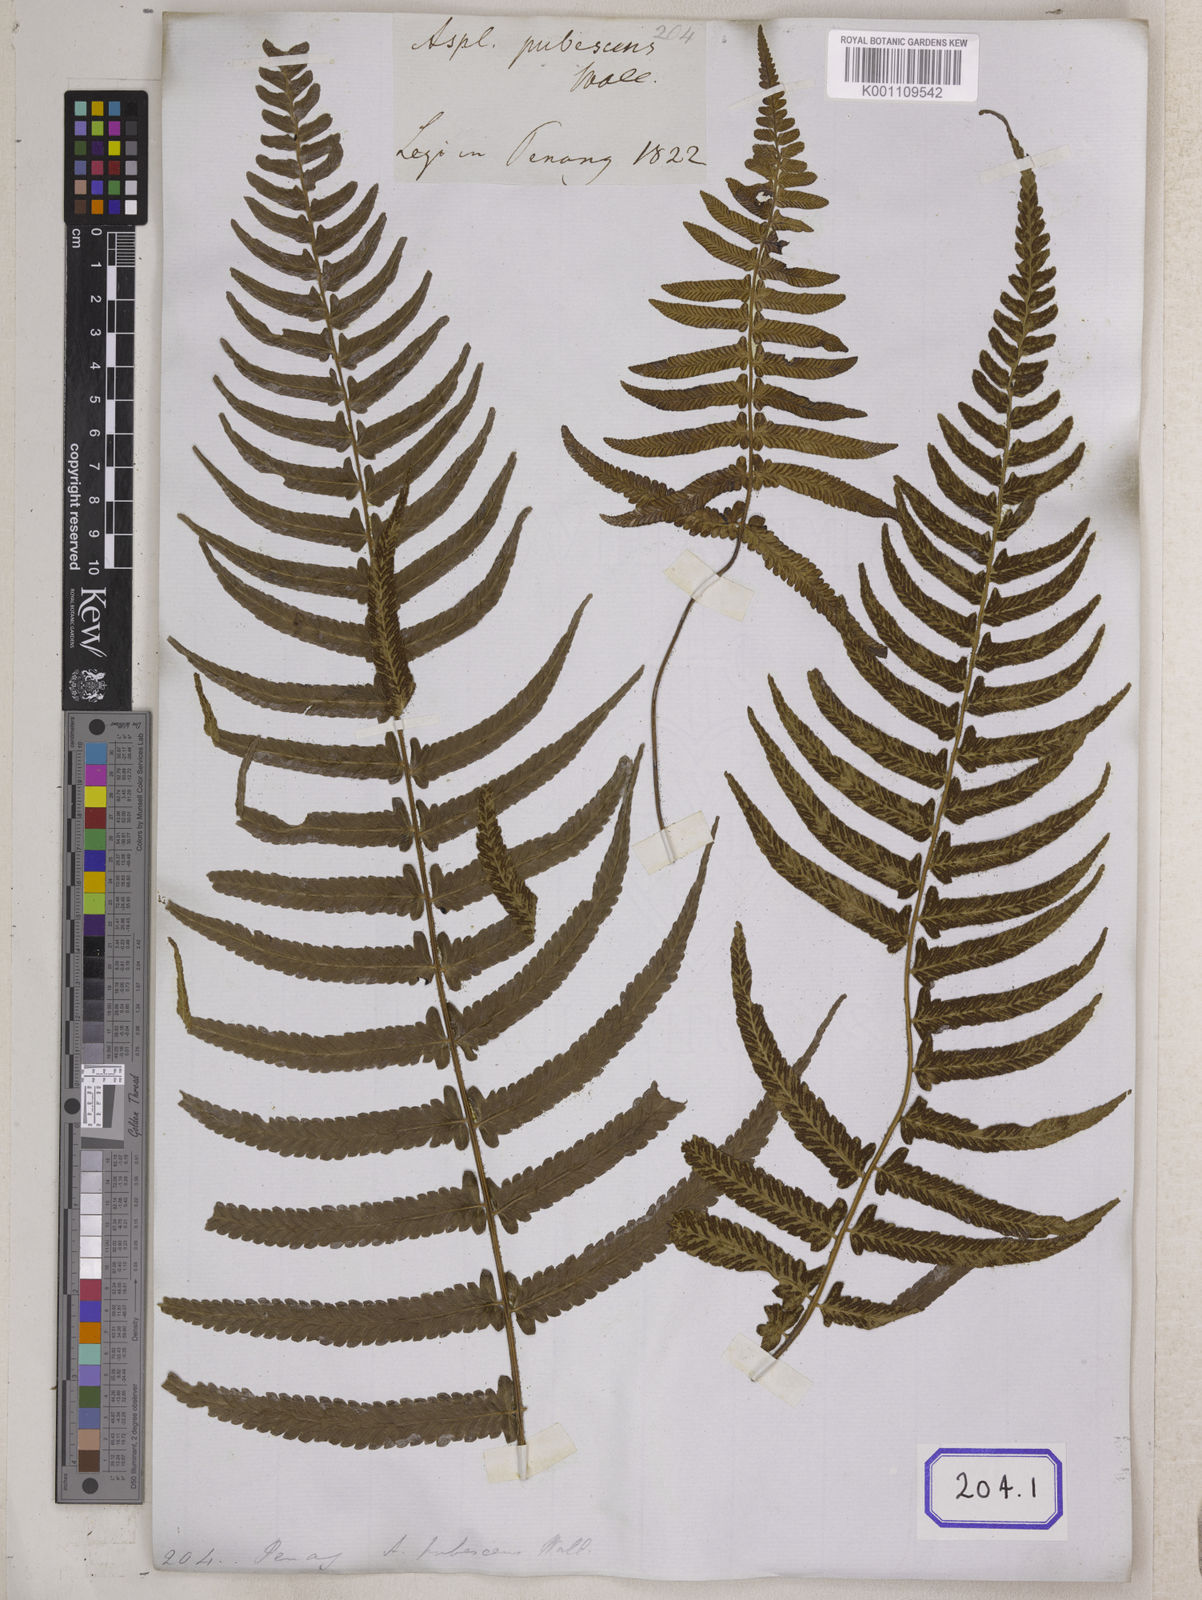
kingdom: Plantae
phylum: Tracheophyta
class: Polypodiopsida
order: Polypodiales
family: Aspleniaceae
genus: Asplenium
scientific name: Asplenium
